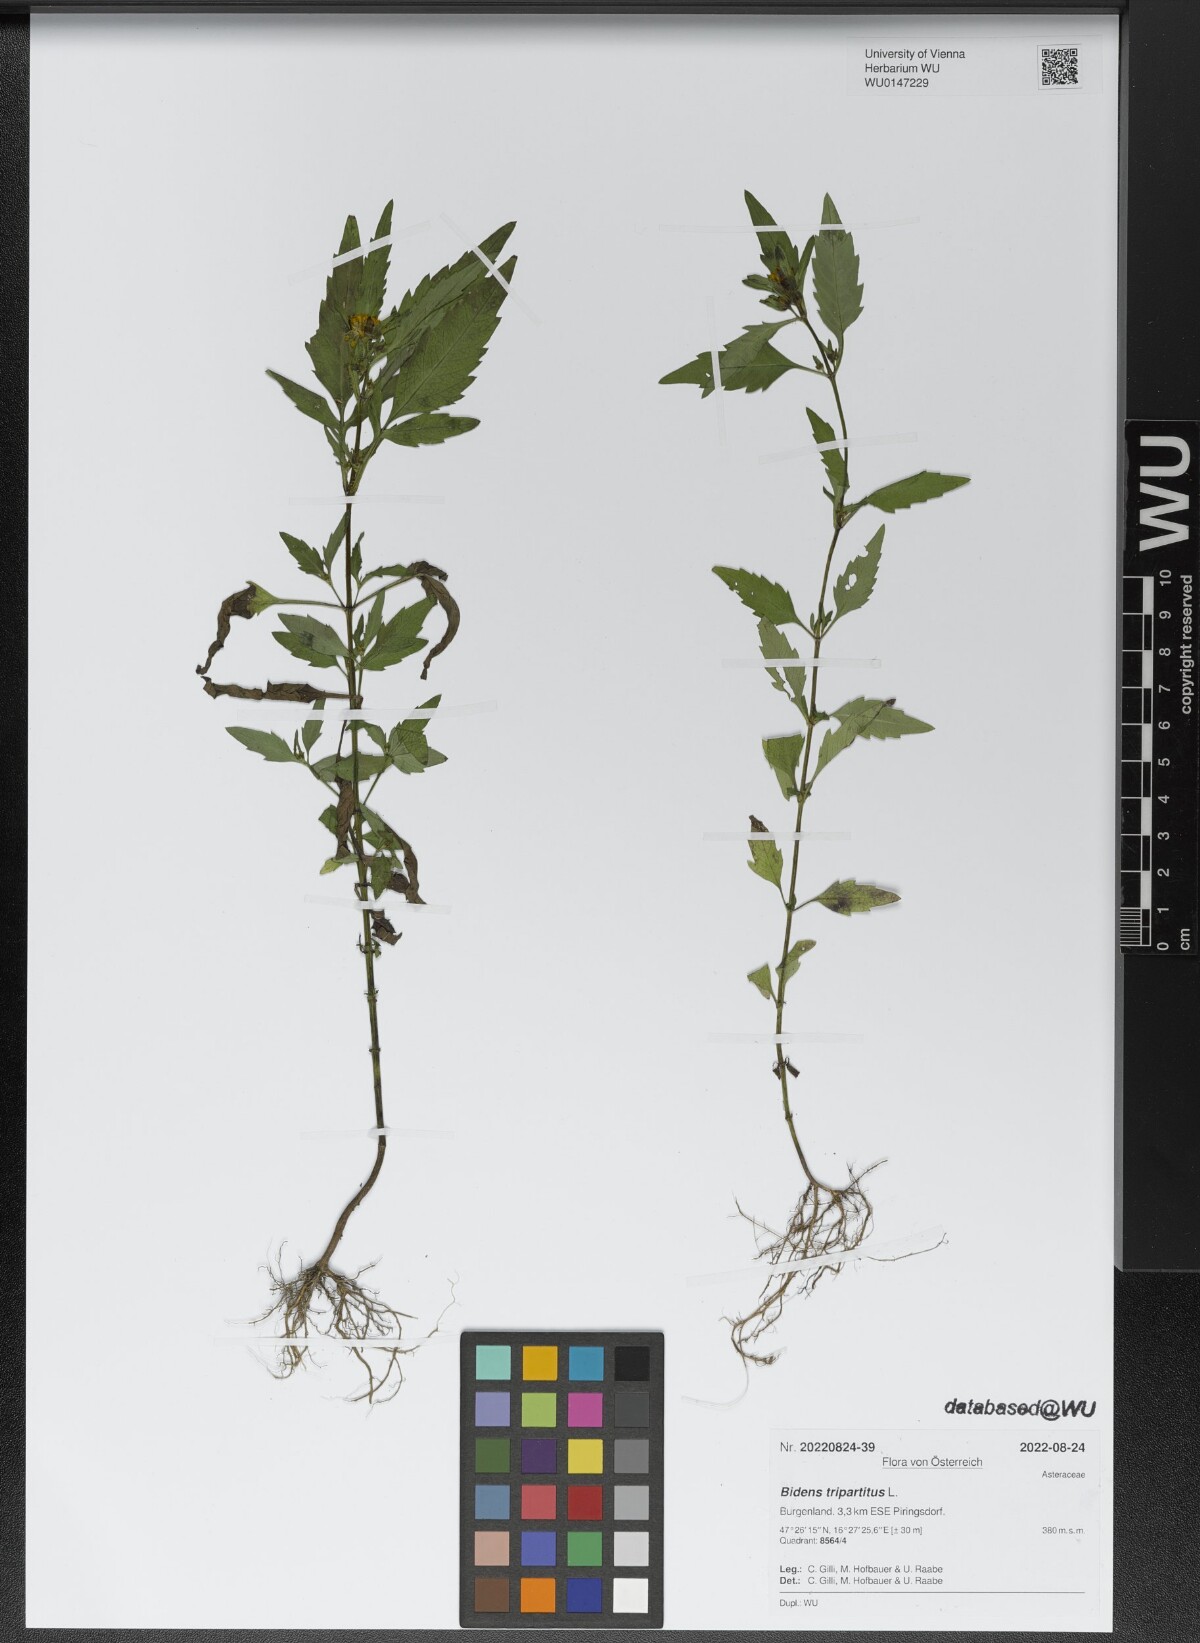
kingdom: Plantae
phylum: Tracheophyta
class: Magnoliopsida
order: Asterales
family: Asteraceae
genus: Bidens
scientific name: Bidens tripartita
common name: Trifid bur-marigold
